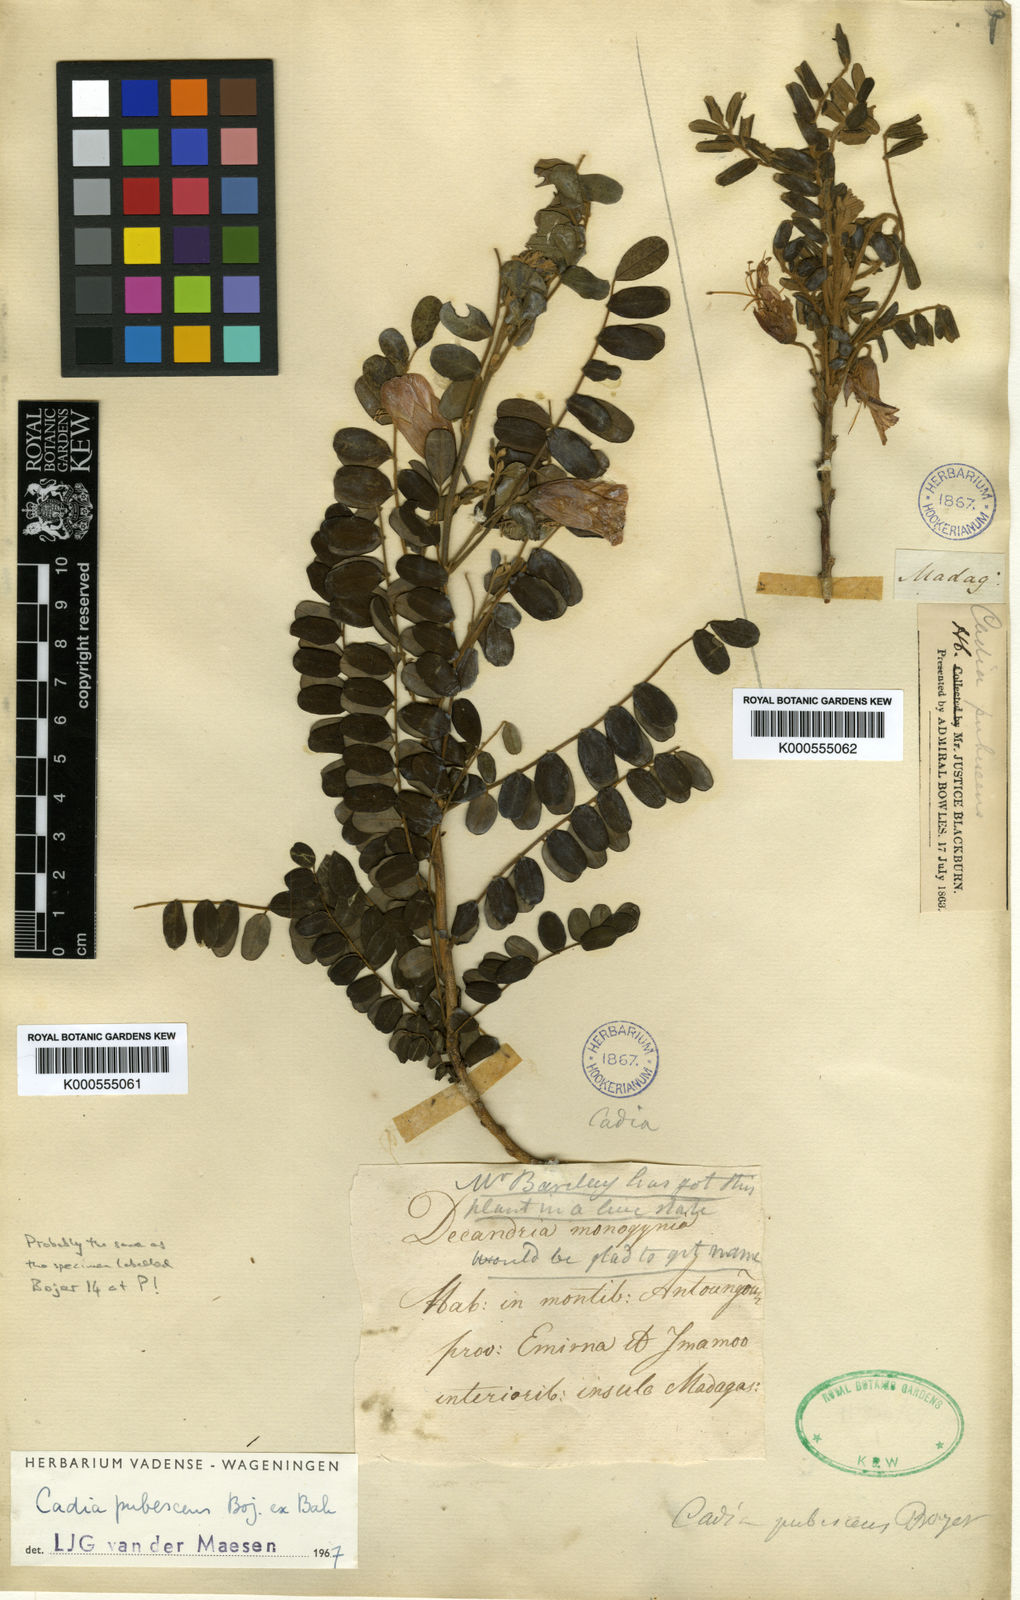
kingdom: Plantae
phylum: Tracheophyta
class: Magnoliopsida
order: Fabales
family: Fabaceae
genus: Cadia
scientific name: Cadia pubescens
